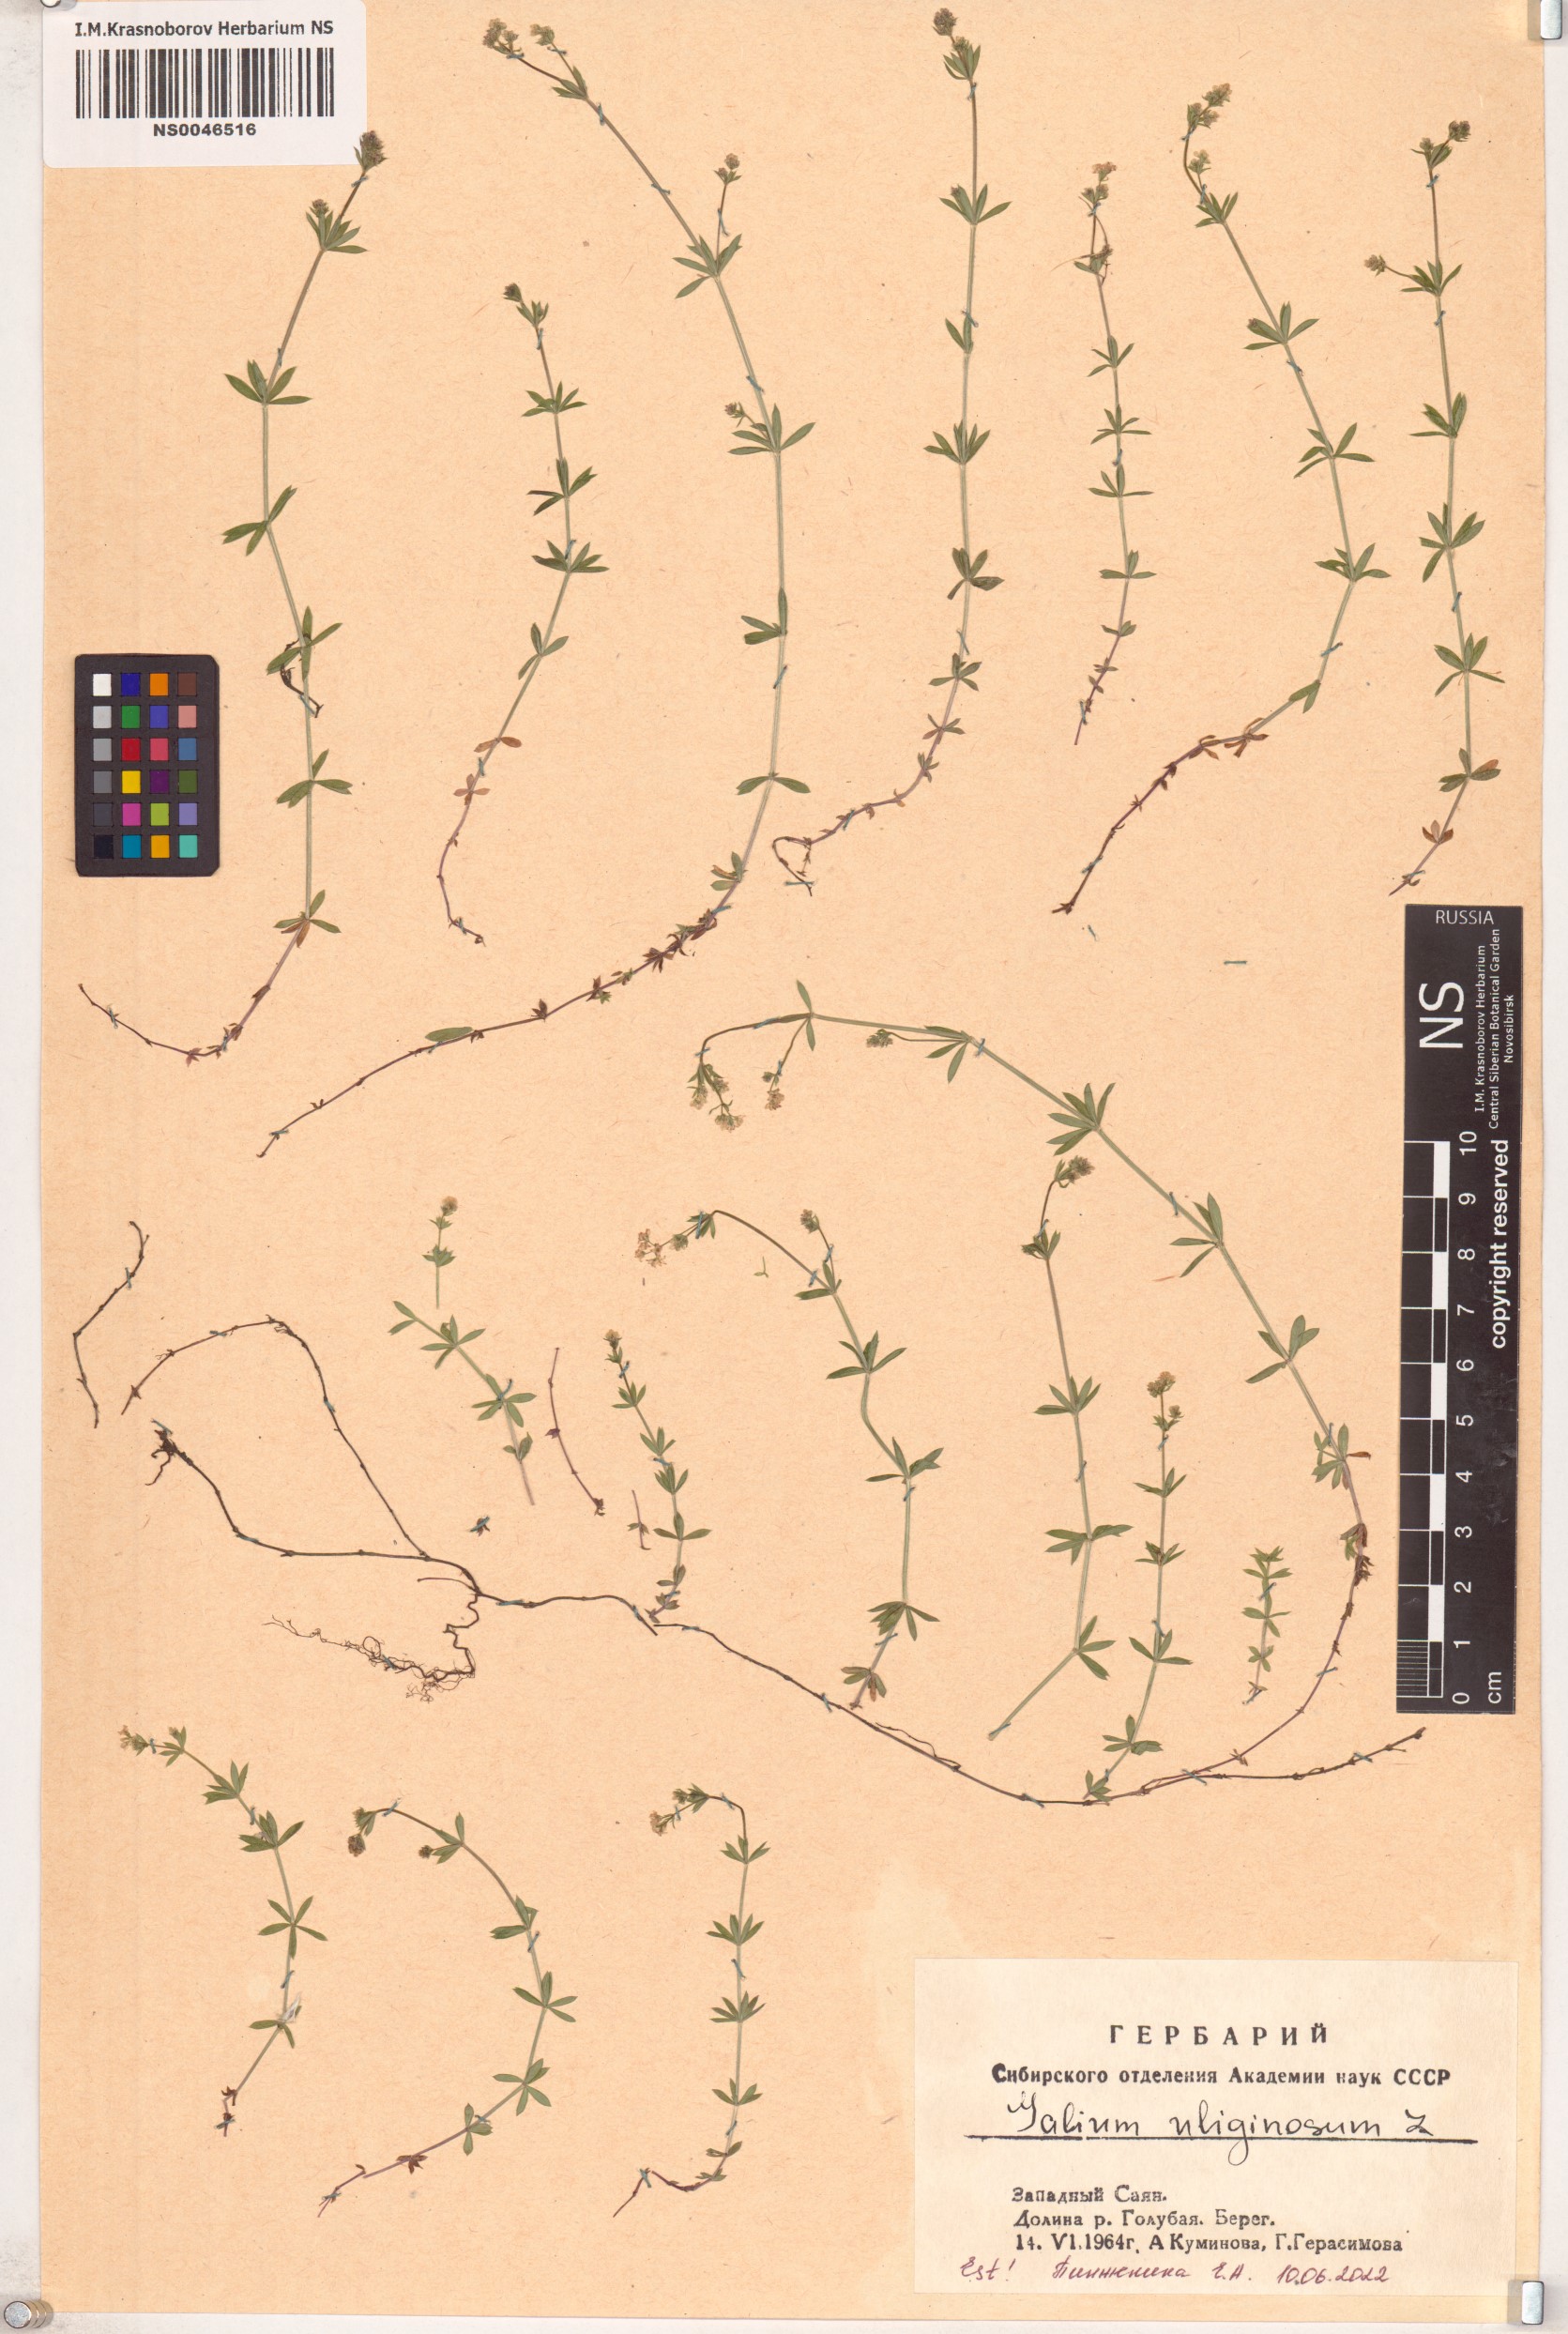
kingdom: Plantae
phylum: Tracheophyta
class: Magnoliopsida
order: Gentianales
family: Rubiaceae
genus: Galium
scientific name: Galium uliginosum
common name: Fen bedstraw
